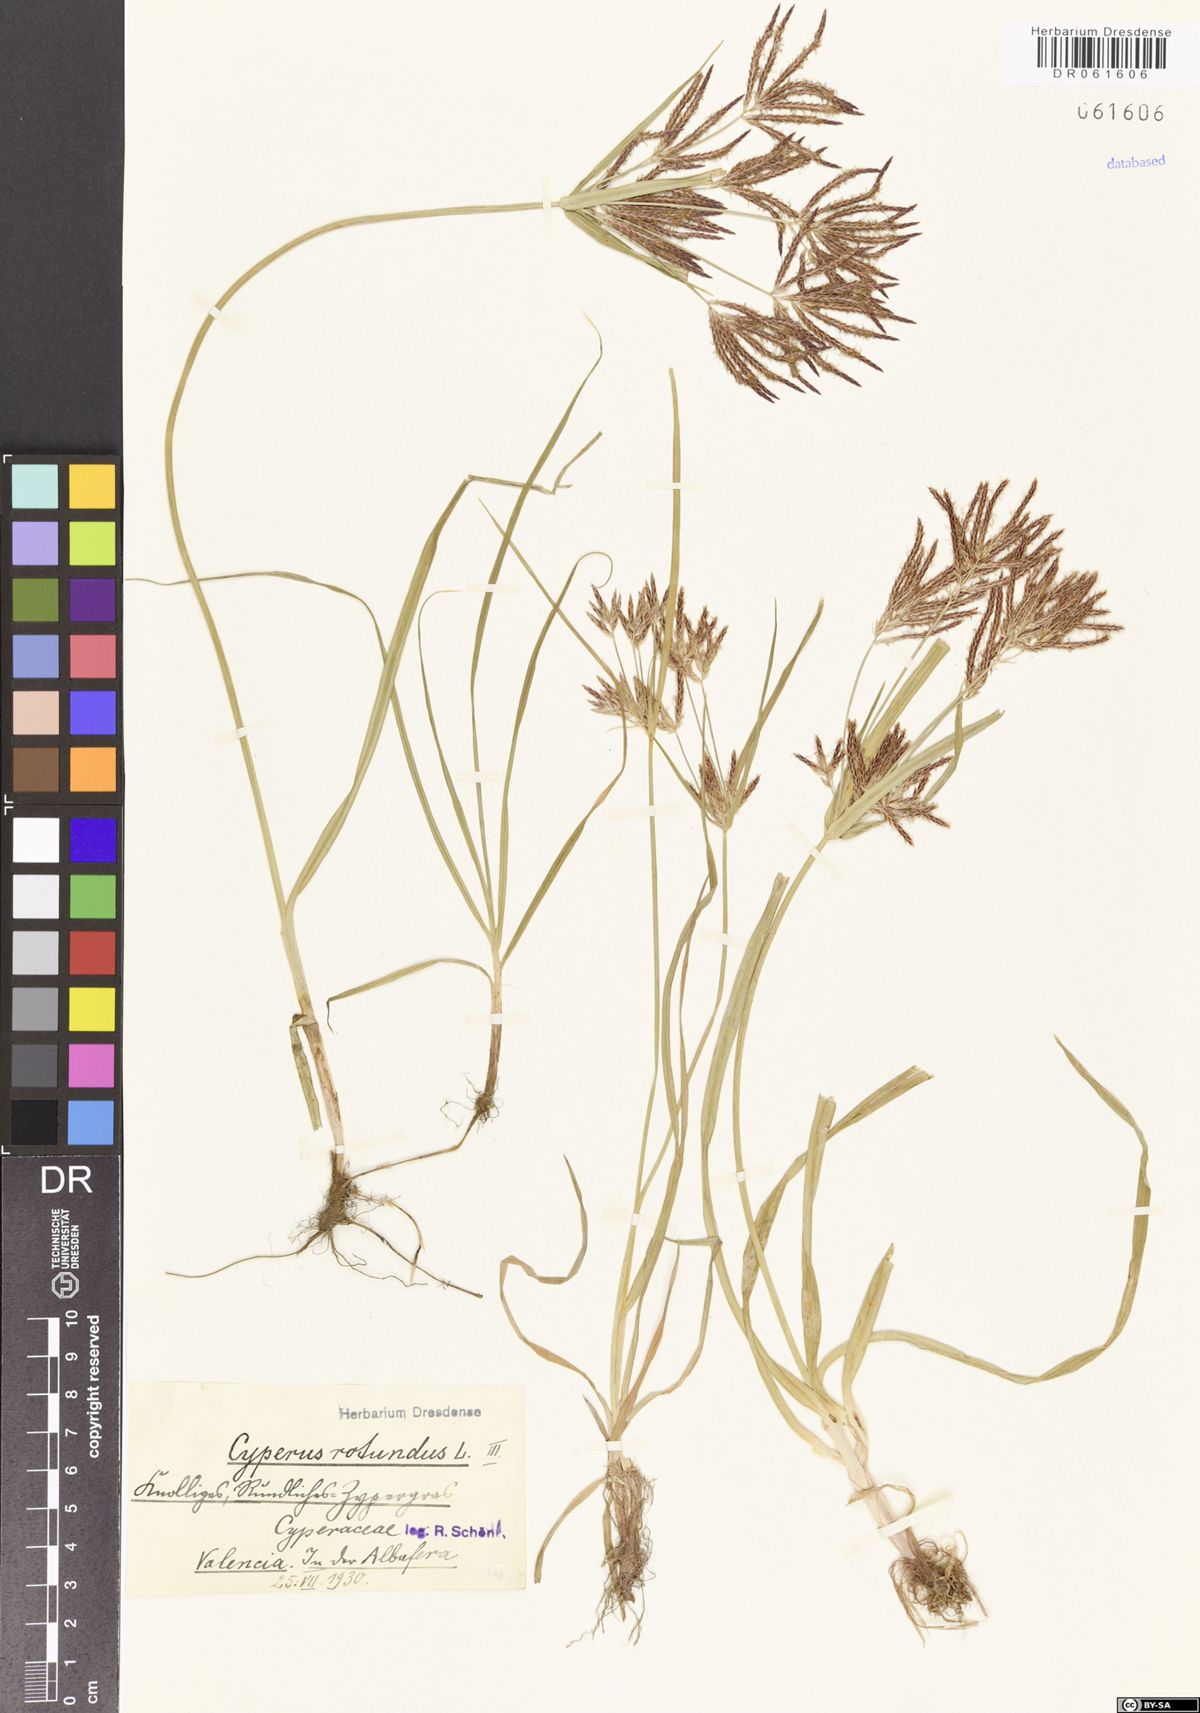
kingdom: Plantae
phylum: Tracheophyta
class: Liliopsida
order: Poales
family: Cyperaceae
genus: Cyperus
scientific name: Cyperus rotundus
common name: Nutgrass
